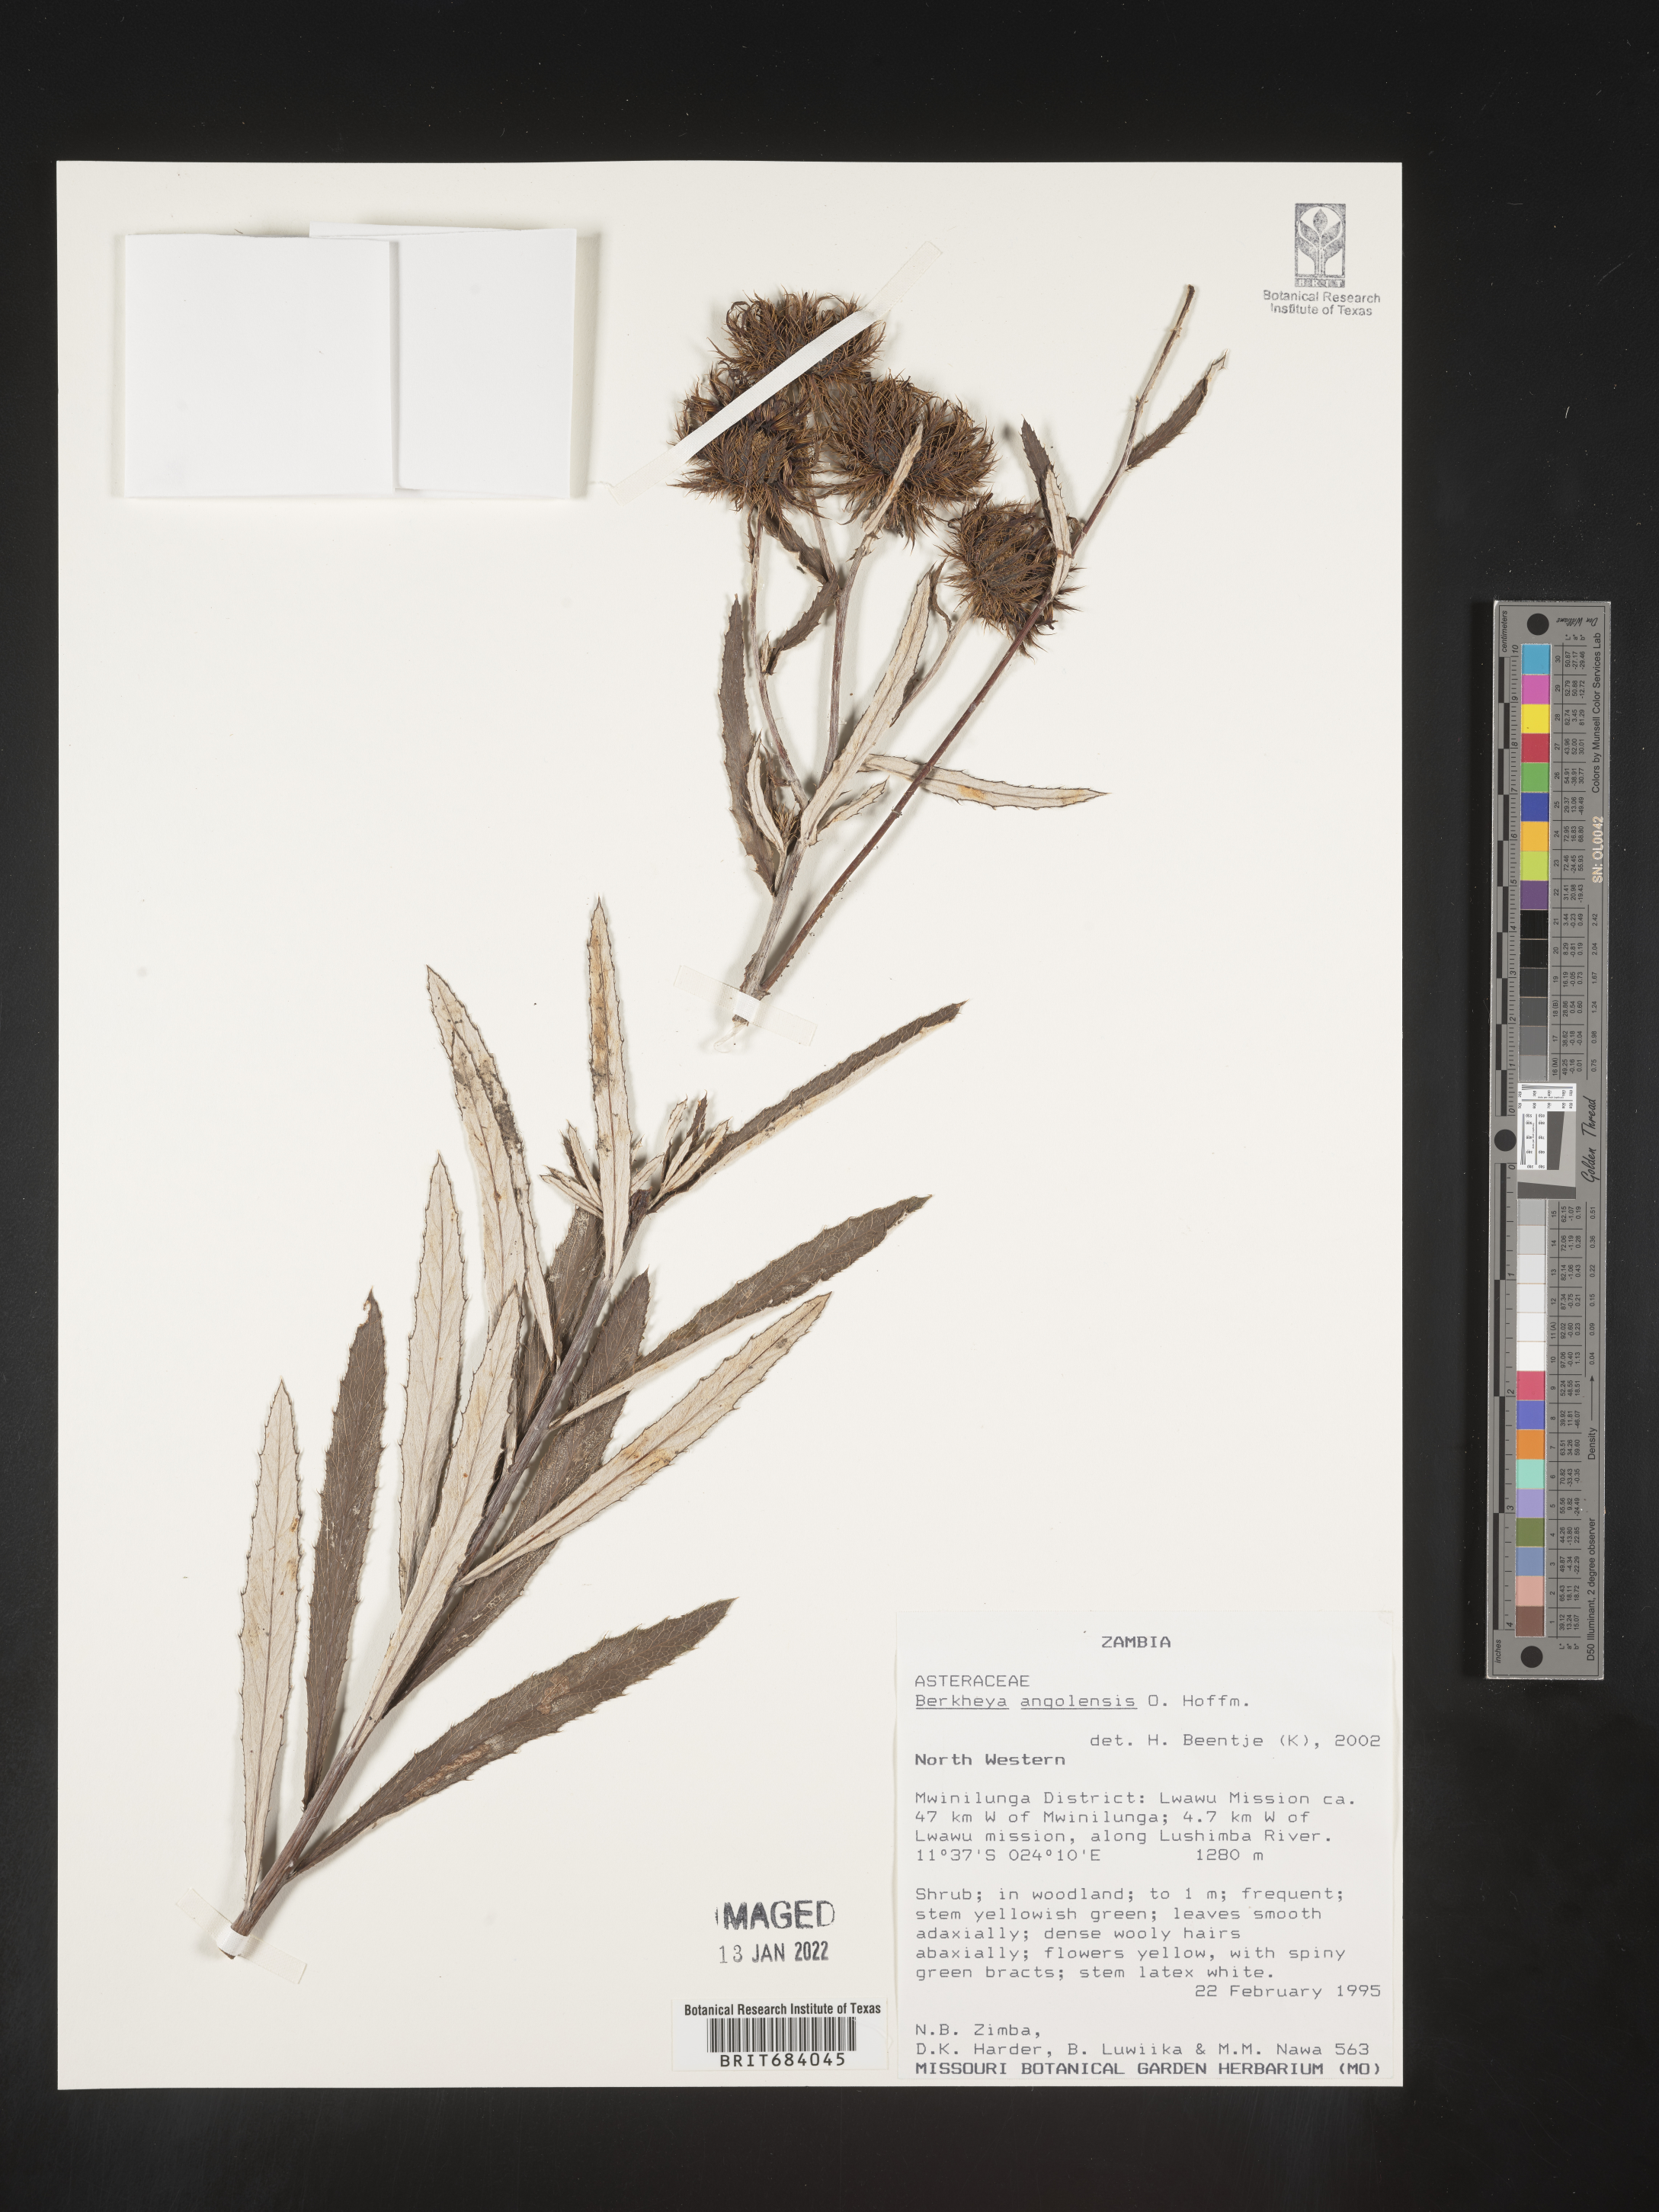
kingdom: Plantae
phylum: Tracheophyta
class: Magnoliopsida
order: Asterales
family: Asteraceae
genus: Berkheya
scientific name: Berkheya
